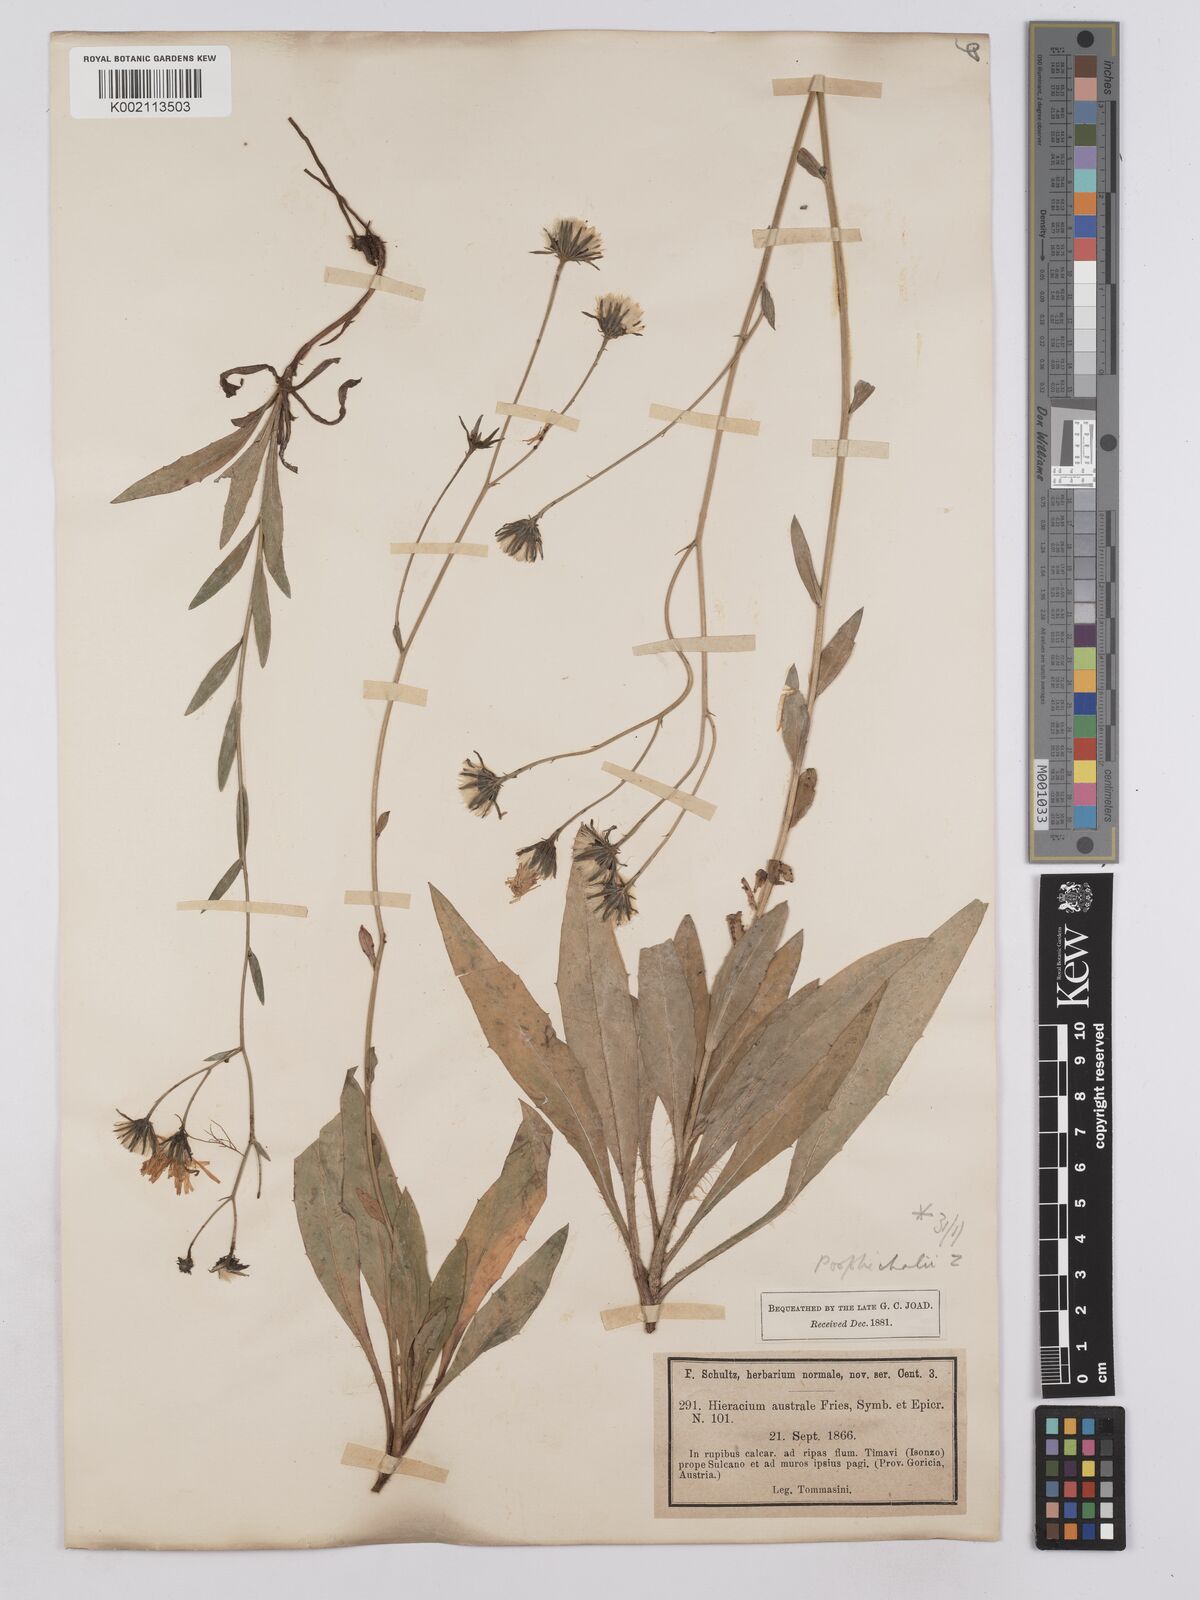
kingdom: Plantae
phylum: Tracheophyta
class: Magnoliopsida
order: Asterales
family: Asteraceae
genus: Hieracium
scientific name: Hieracium porrifolium
